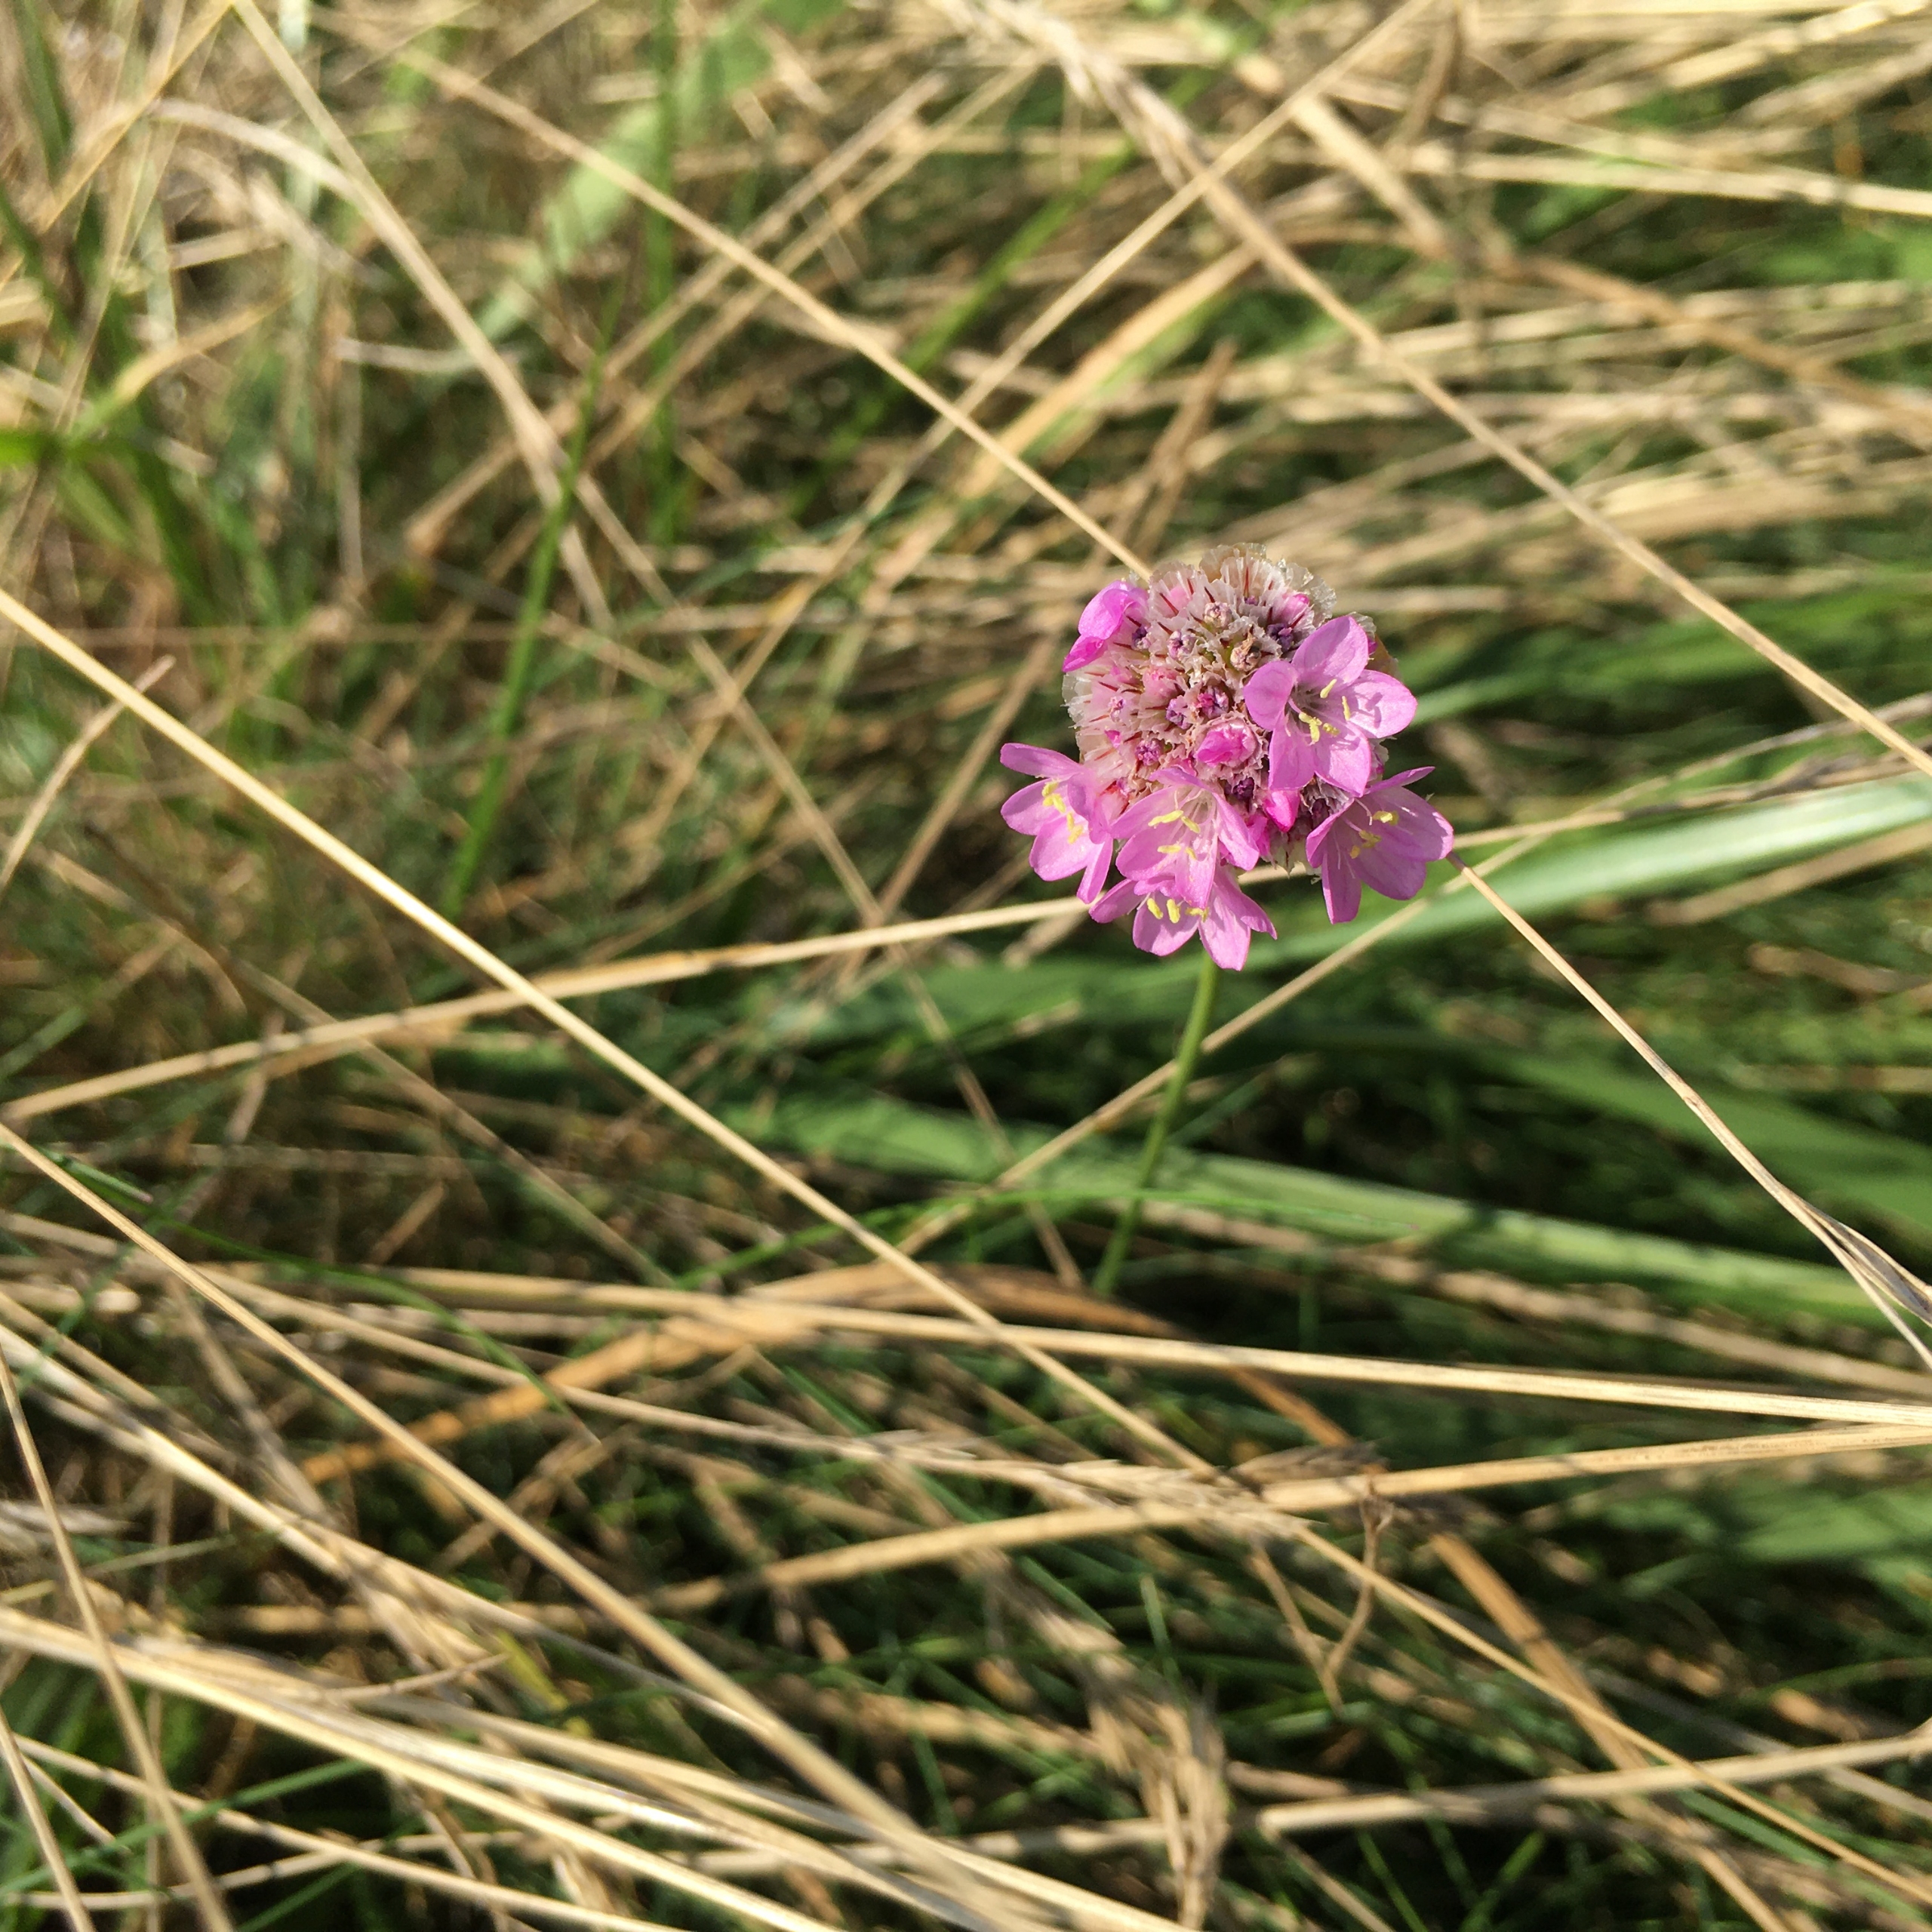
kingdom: Plantae
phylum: Tracheophyta
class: Magnoliopsida
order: Caryophyllales
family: Plumbaginaceae
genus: Armeria
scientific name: Armeria maritima
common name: Engelskgræs
